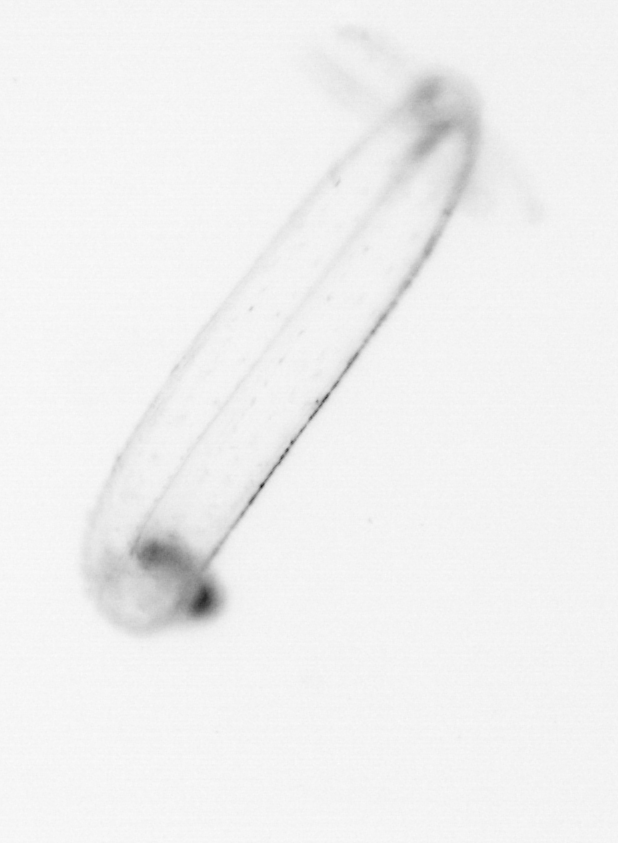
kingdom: Animalia
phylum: Chaetognatha
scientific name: Chaetognatha
